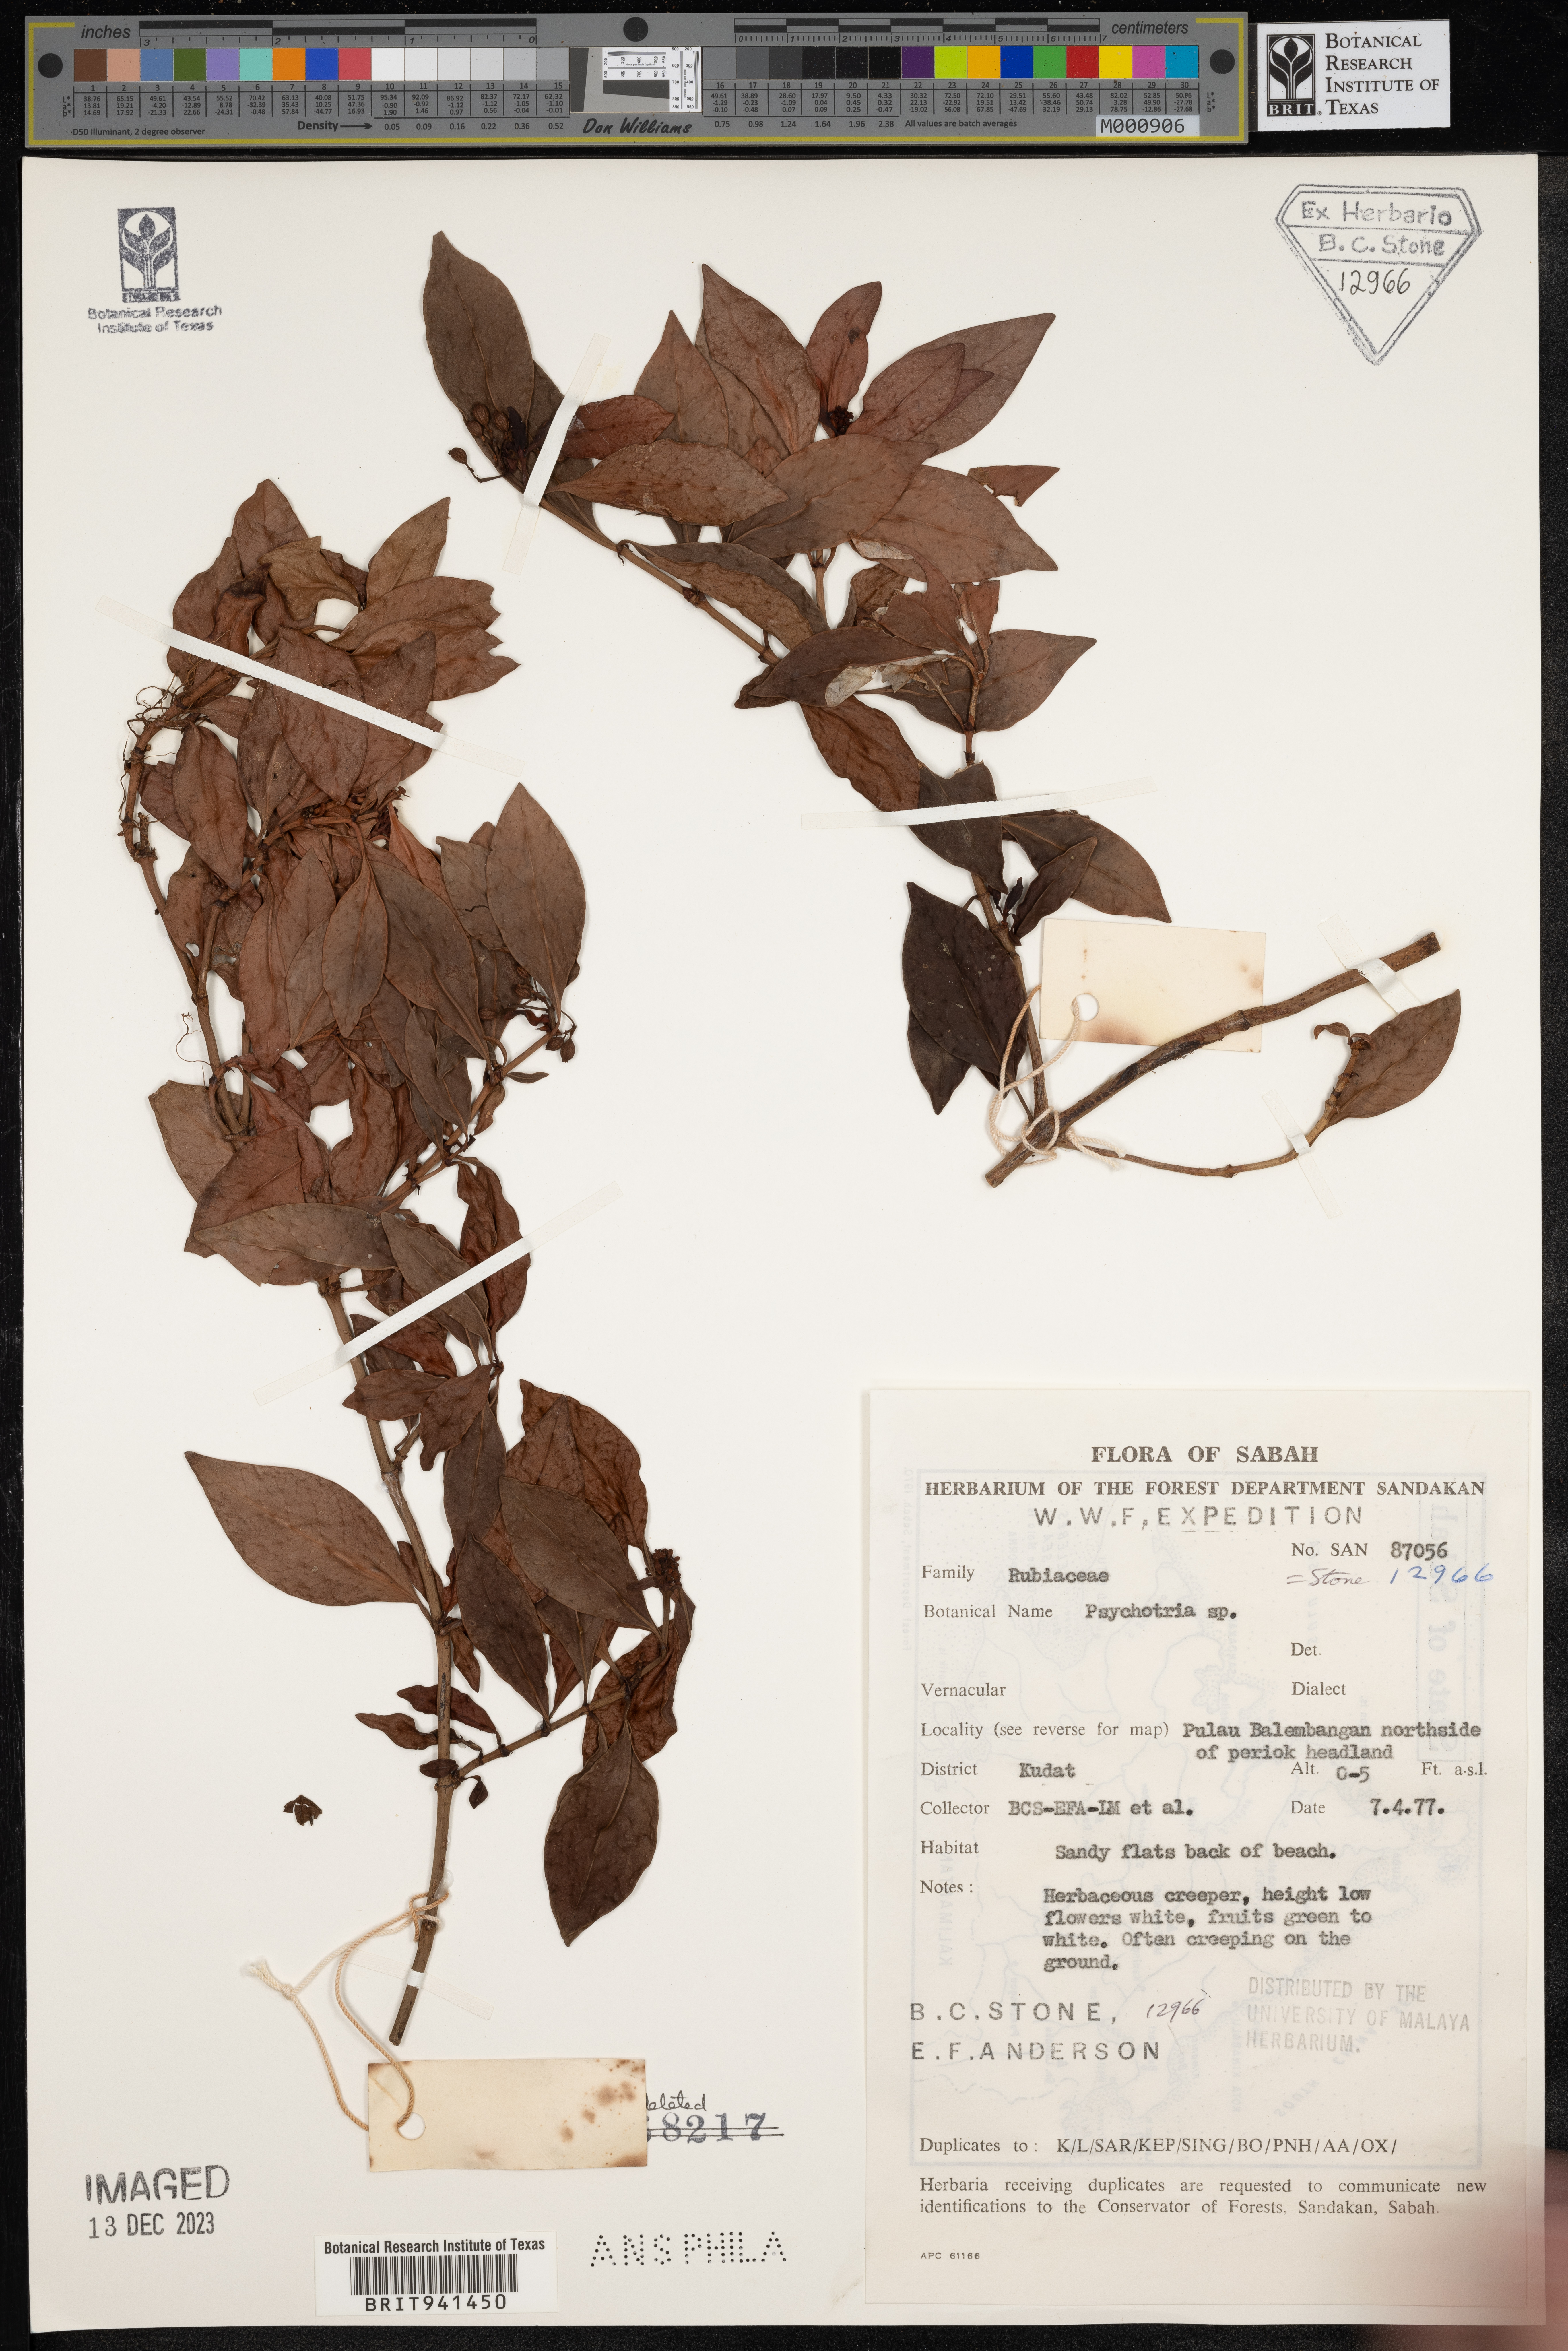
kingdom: Plantae
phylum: Tracheophyta
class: Magnoliopsida
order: Gentianales
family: Rubiaceae
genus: Psychotria
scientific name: Psychotria
